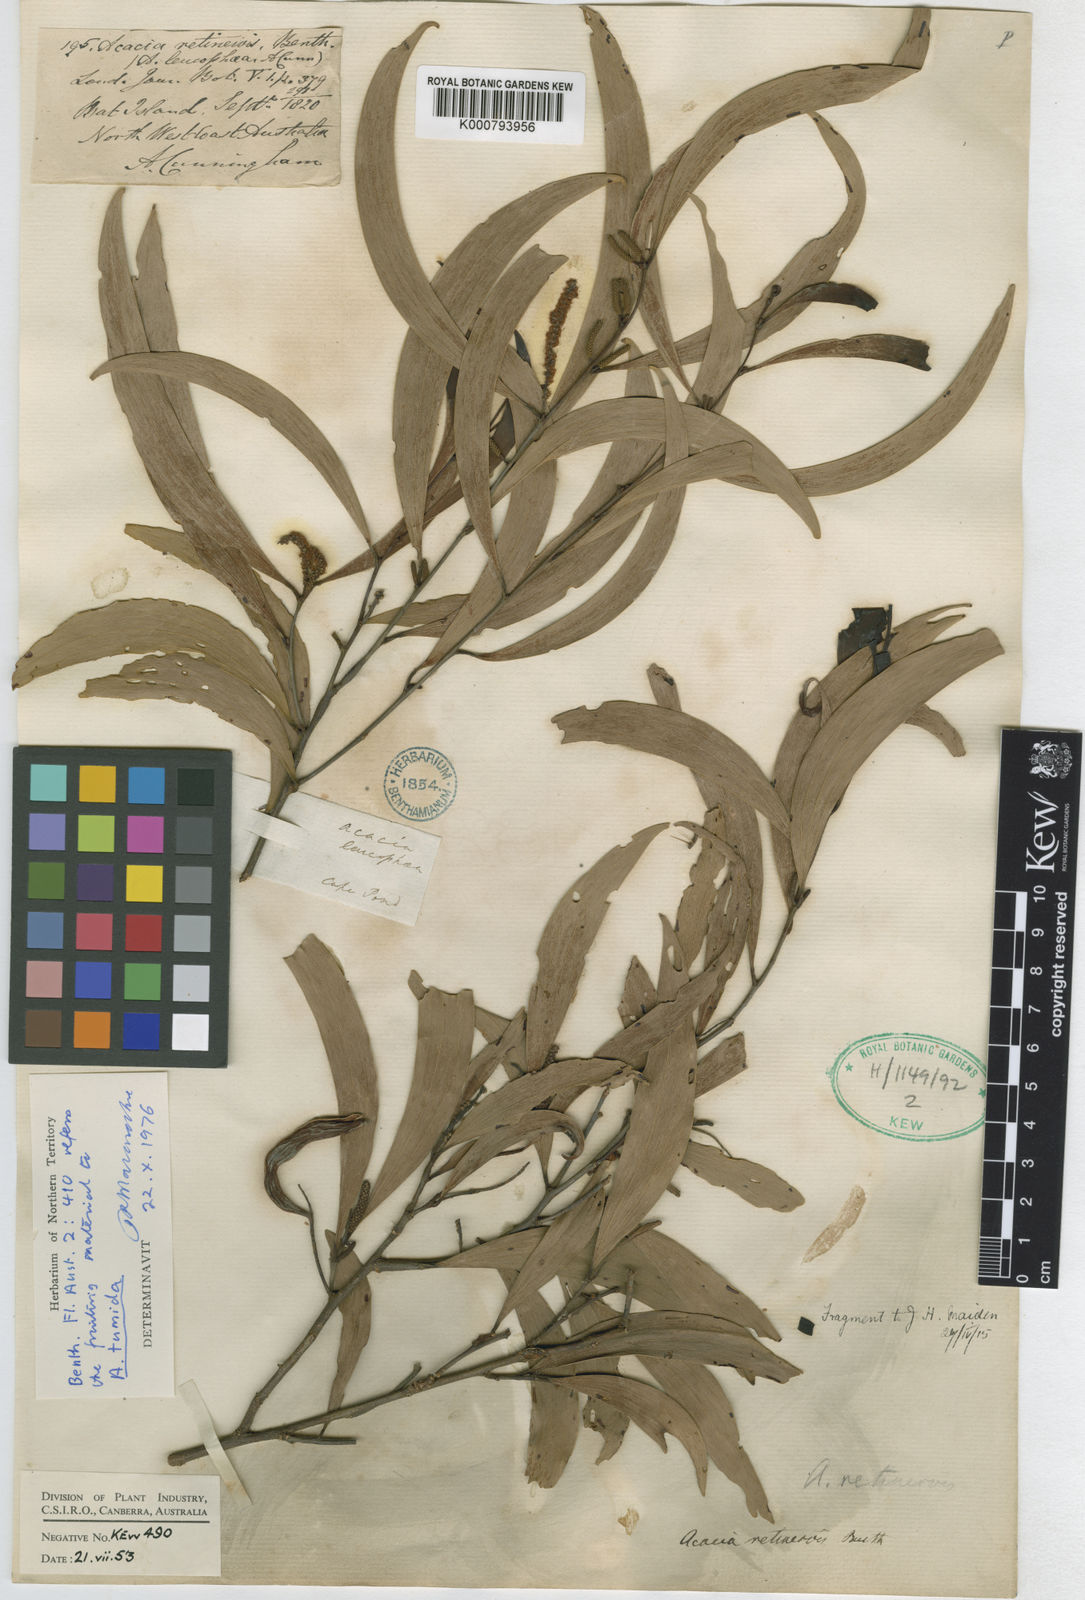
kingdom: Plantae
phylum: Tracheophyta
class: Magnoliopsida
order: Fabales
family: Fabaceae
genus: Acacia
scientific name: Acacia retinervis
